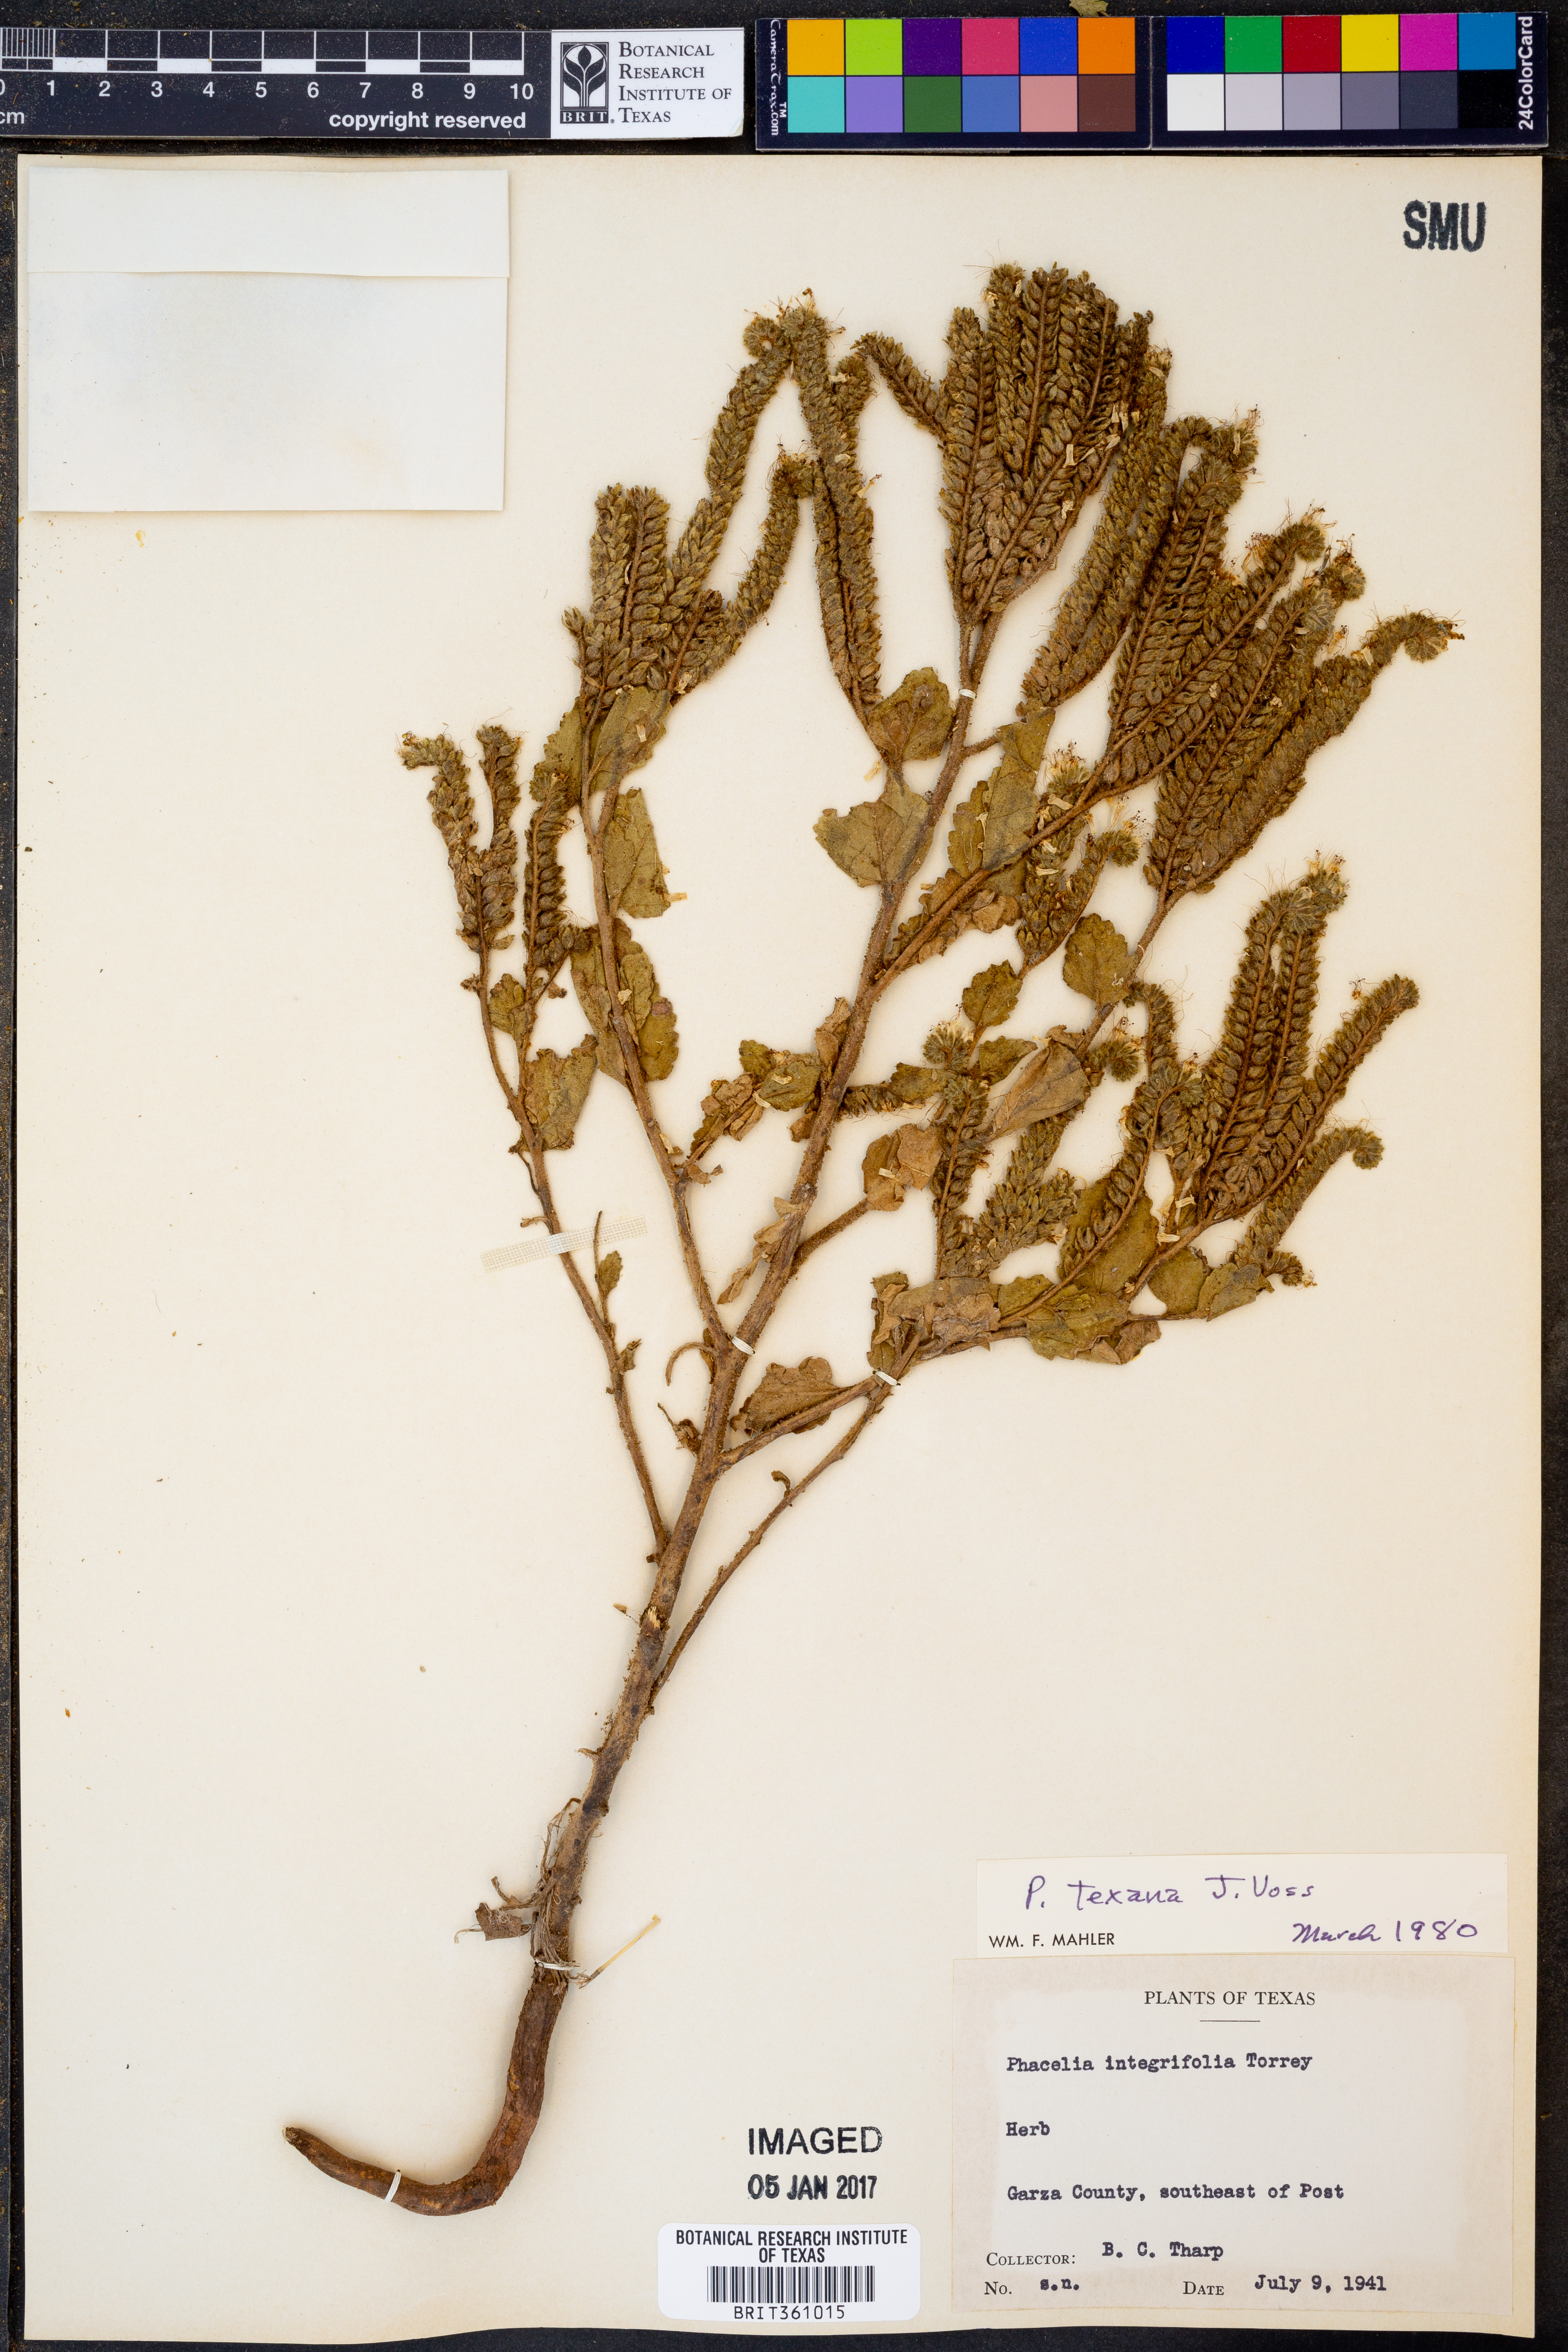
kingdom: Plantae
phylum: Tracheophyta
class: Magnoliopsida
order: Boraginales
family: Hydrophyllaceae
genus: Phacelia
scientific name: Phacelia integrifolia
